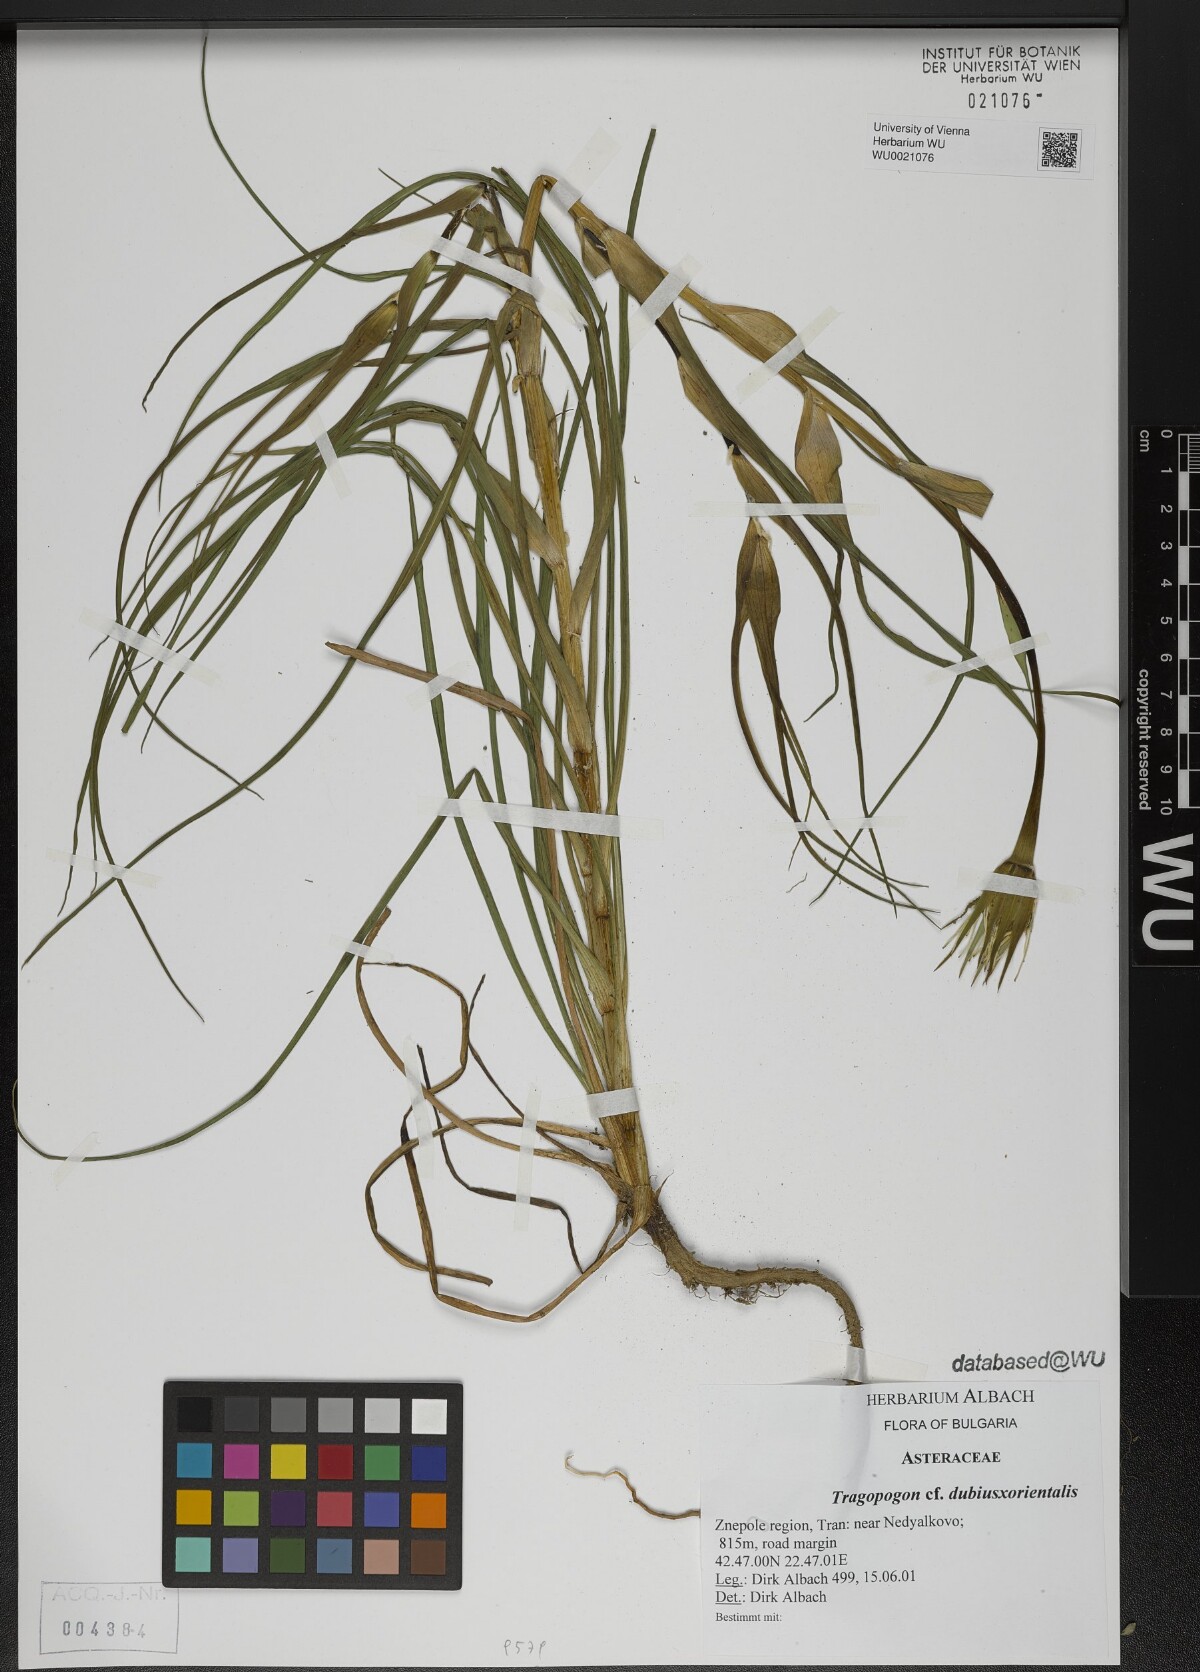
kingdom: Plantae
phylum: Tracheophyta
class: Magnoliopsida
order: Asterales
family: Asteraceae
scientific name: Asteraceae
